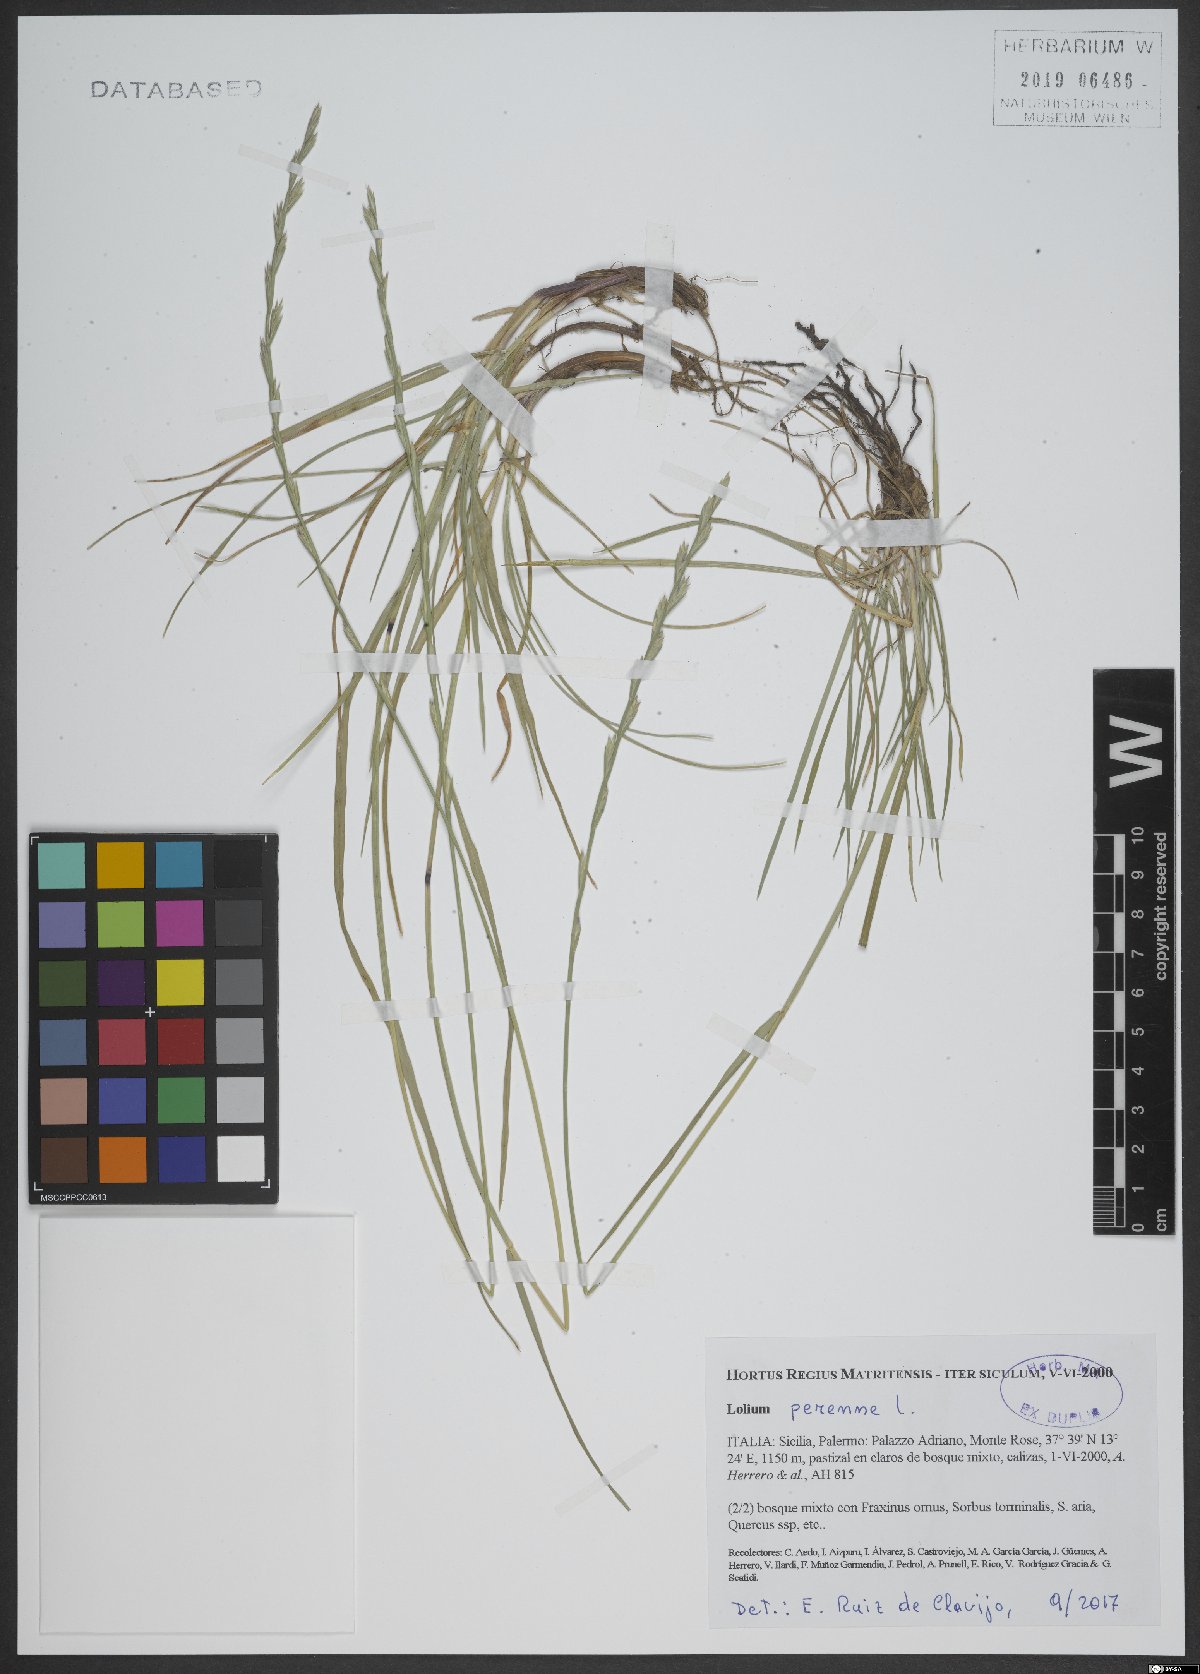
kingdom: Plantae
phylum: Tracheophyta
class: Liliopsida
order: Poales
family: Poaceae
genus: Lolium
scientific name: Lolium perenne
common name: Perennial ryegrass
